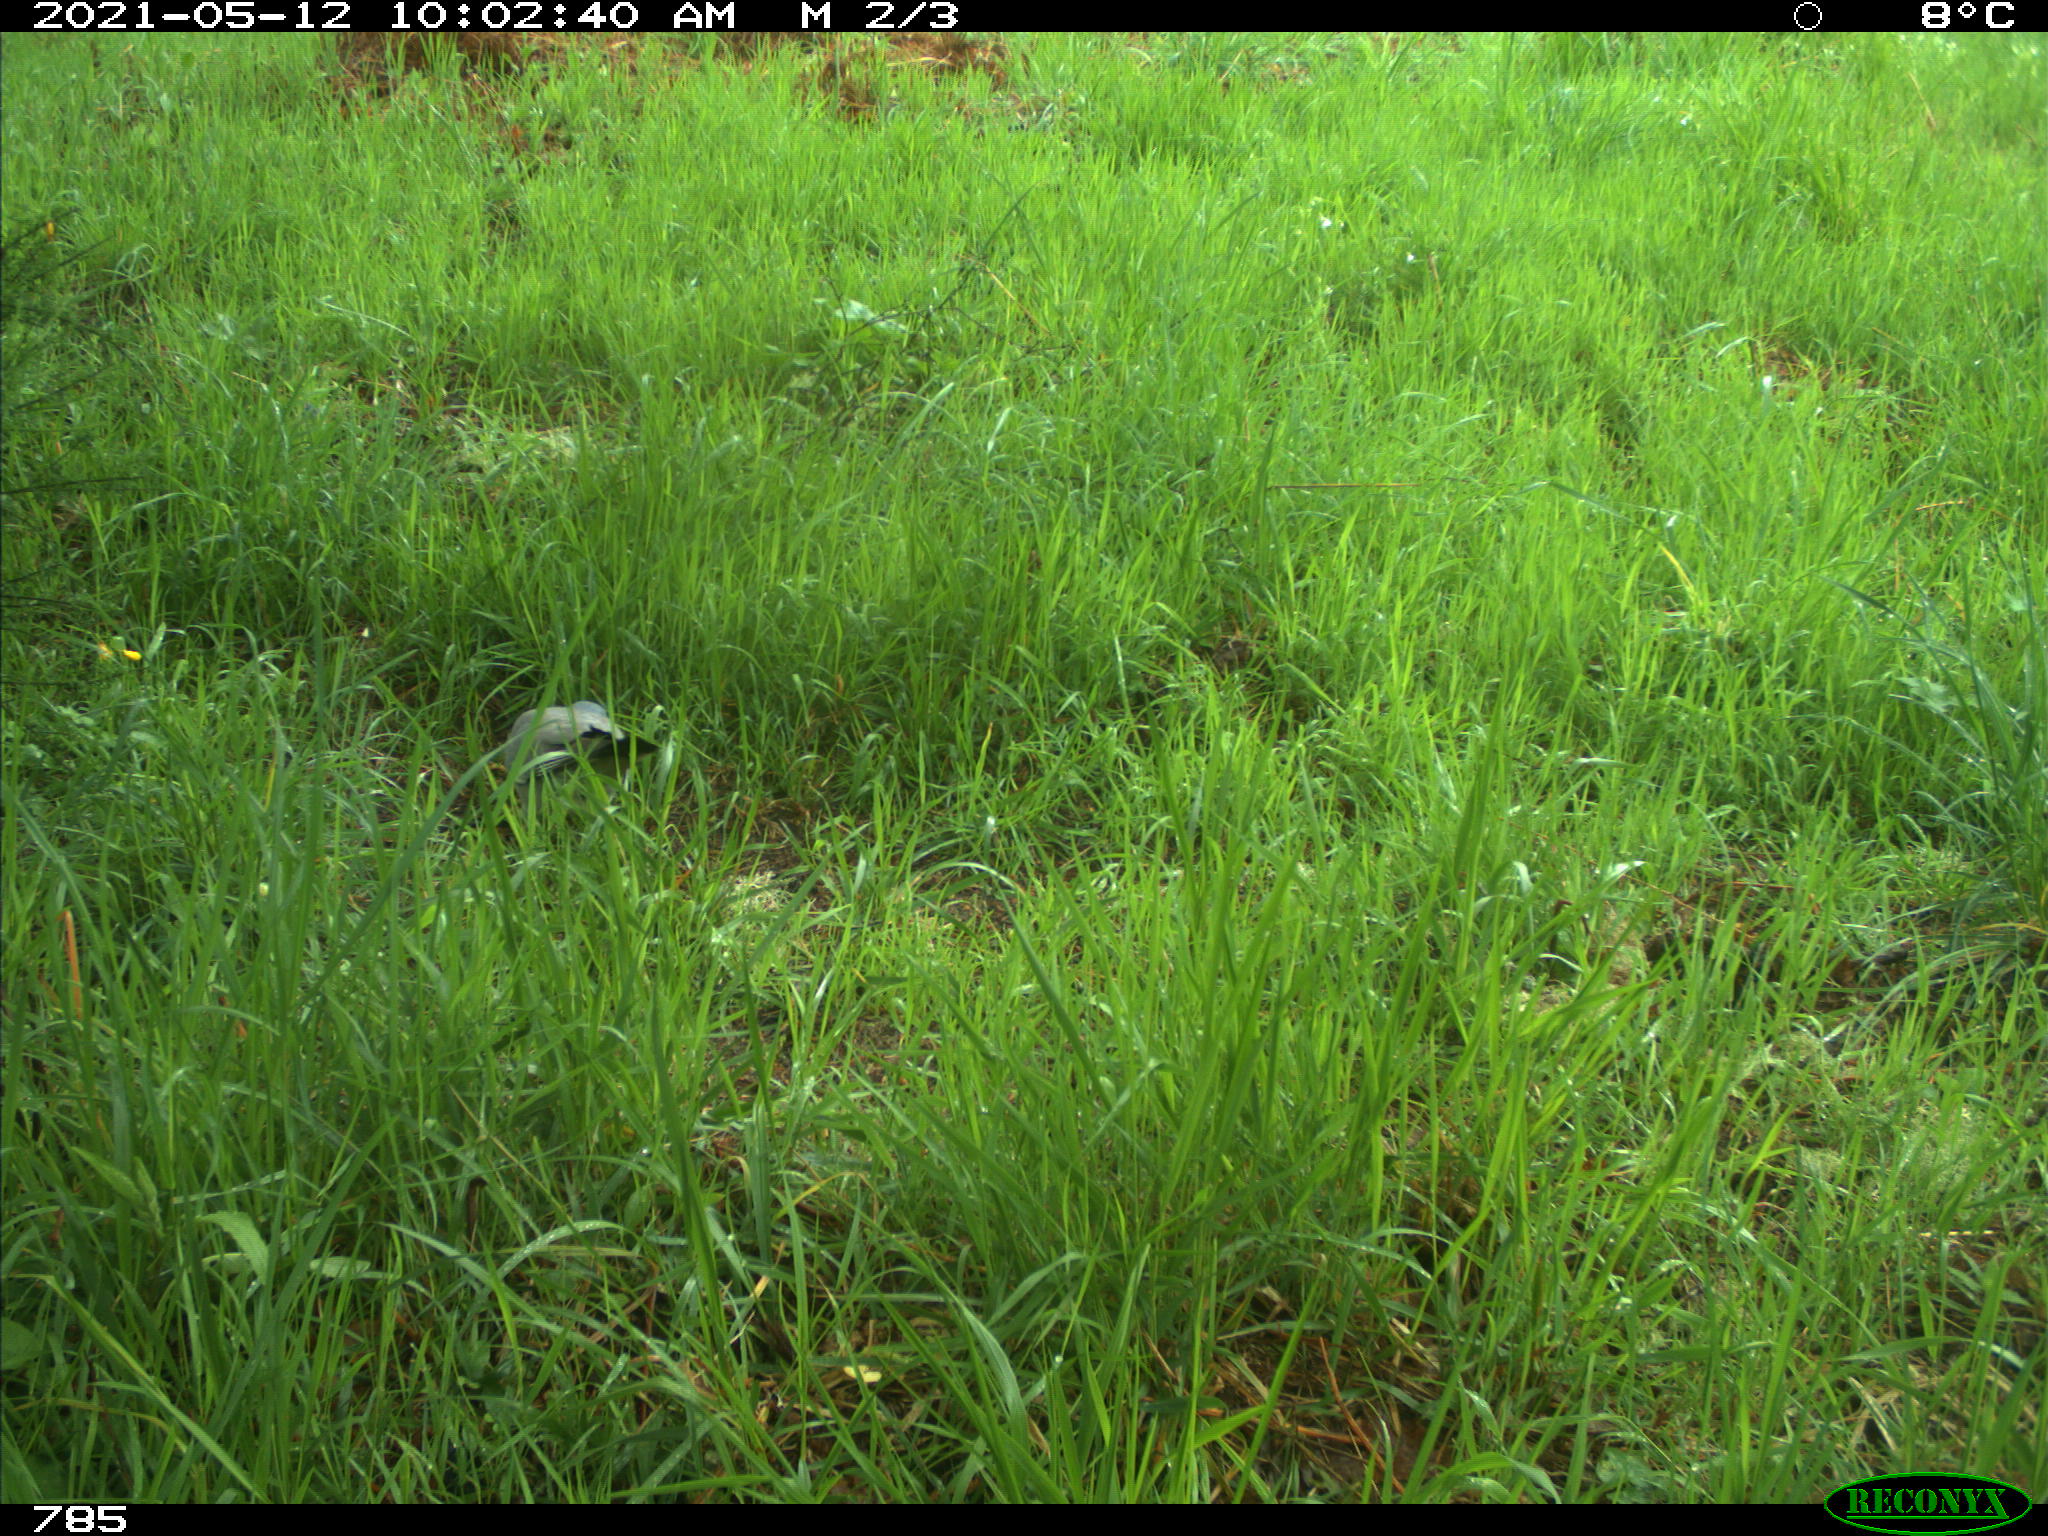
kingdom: Animalia
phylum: Chordata
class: Aves
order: Columbiformes
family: Columbidae
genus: Columba
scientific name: Columba palumbus
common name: Common wood pigeon
